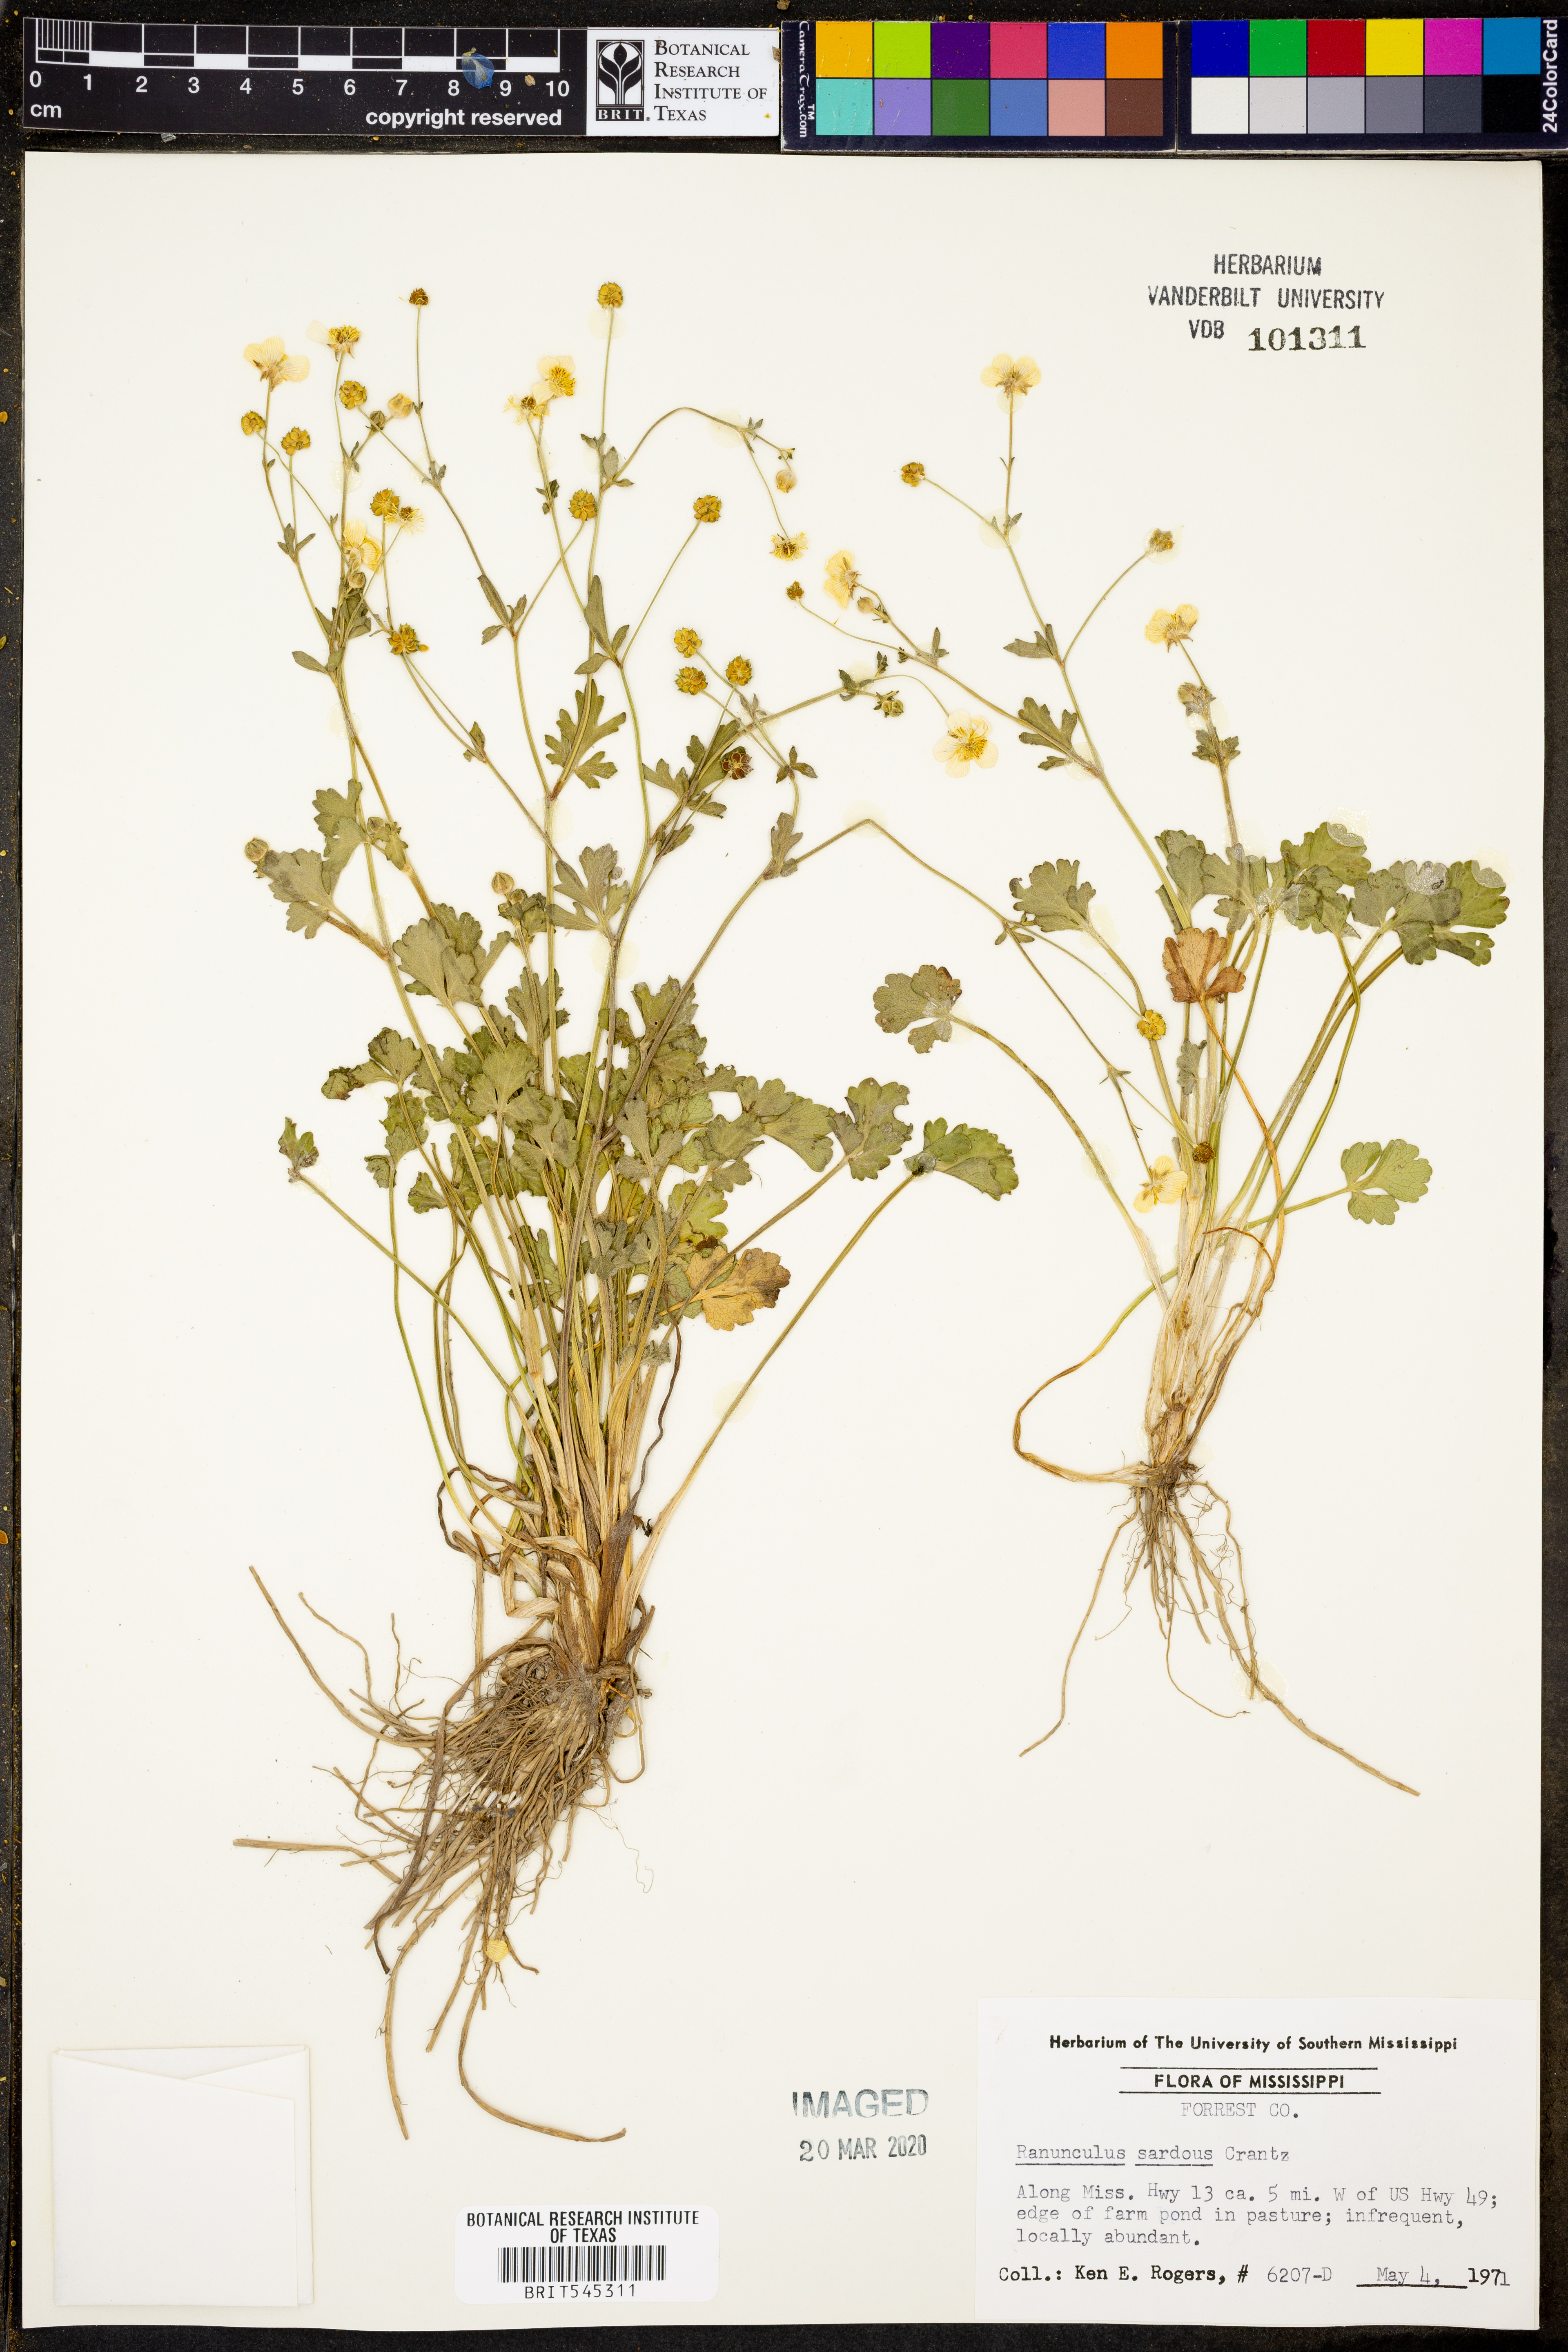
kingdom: Plantae
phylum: Tracheophyta
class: Magnoliopsida
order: Ranunculales
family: Ranunculaceae
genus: Ranunculus
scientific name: Ranunculus sardous
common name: Hairy buttercup
